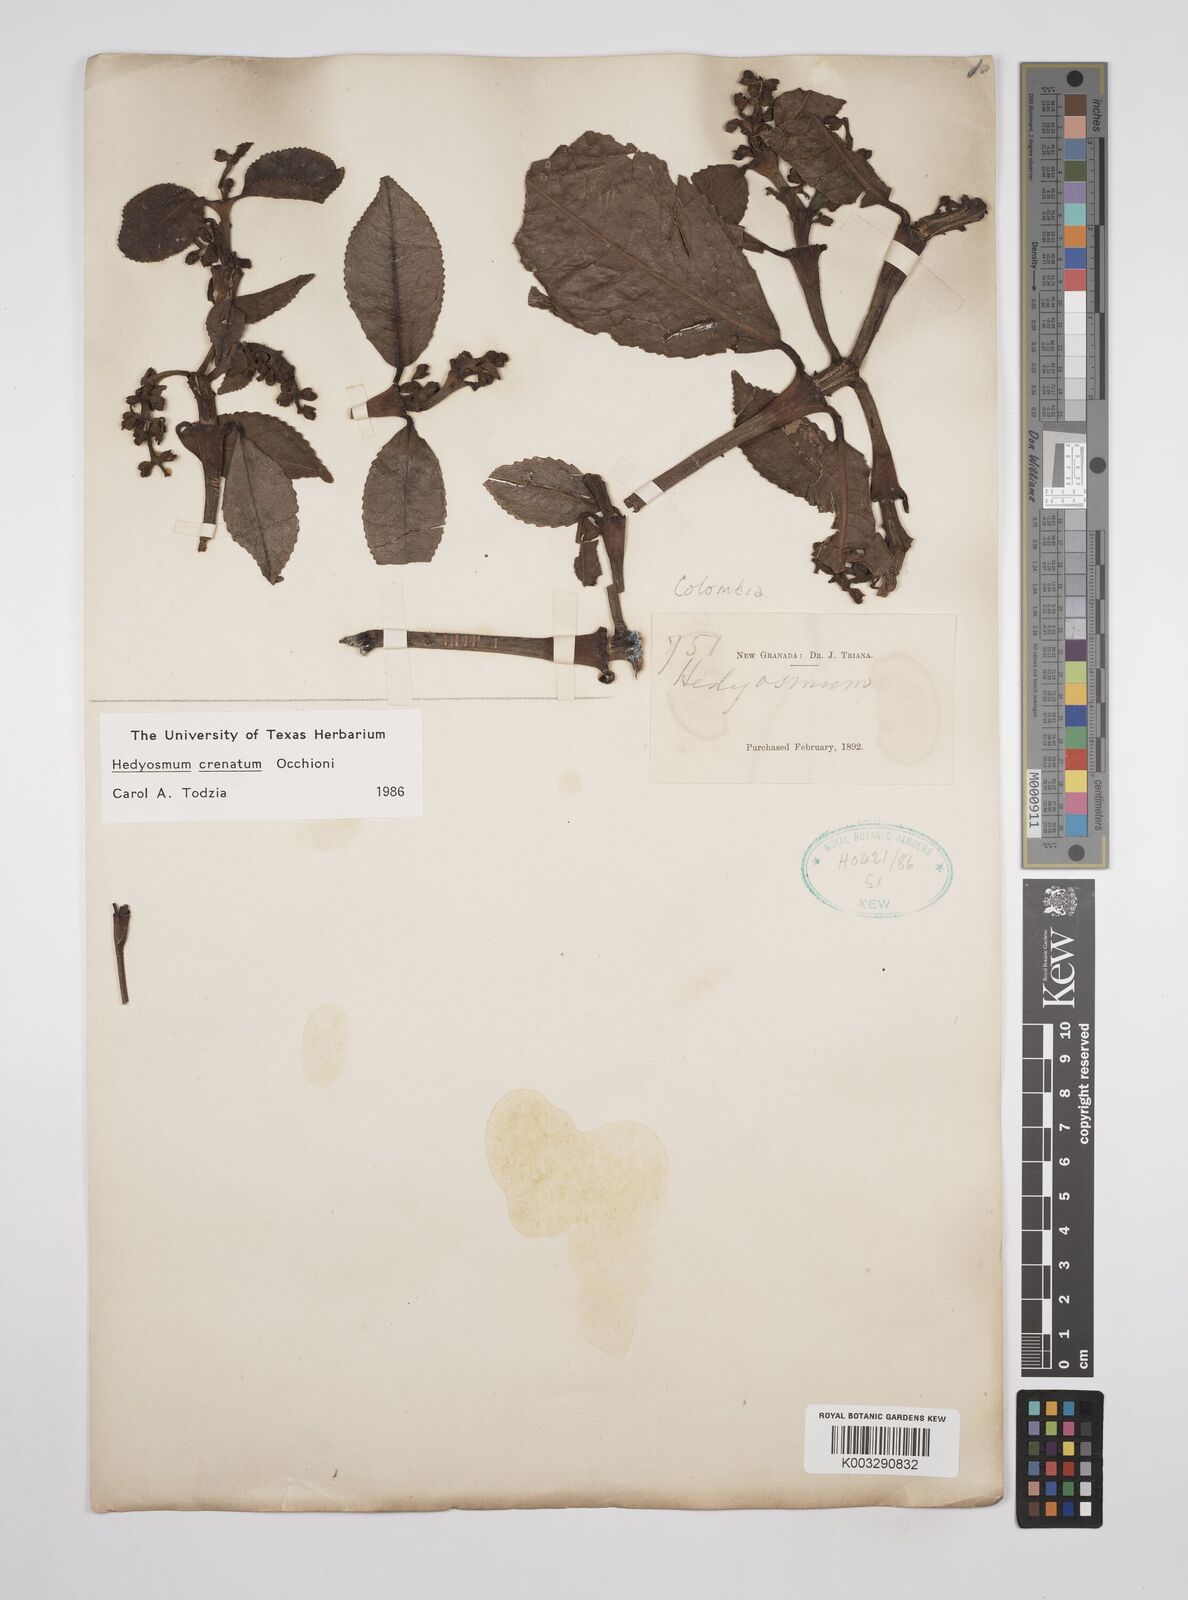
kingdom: Plantae
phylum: Tracheophyta
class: Magnoliopsida
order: Chloranthales
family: Chloranthaceae
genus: Hedyosmum
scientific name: Hedyosmum crenatum
